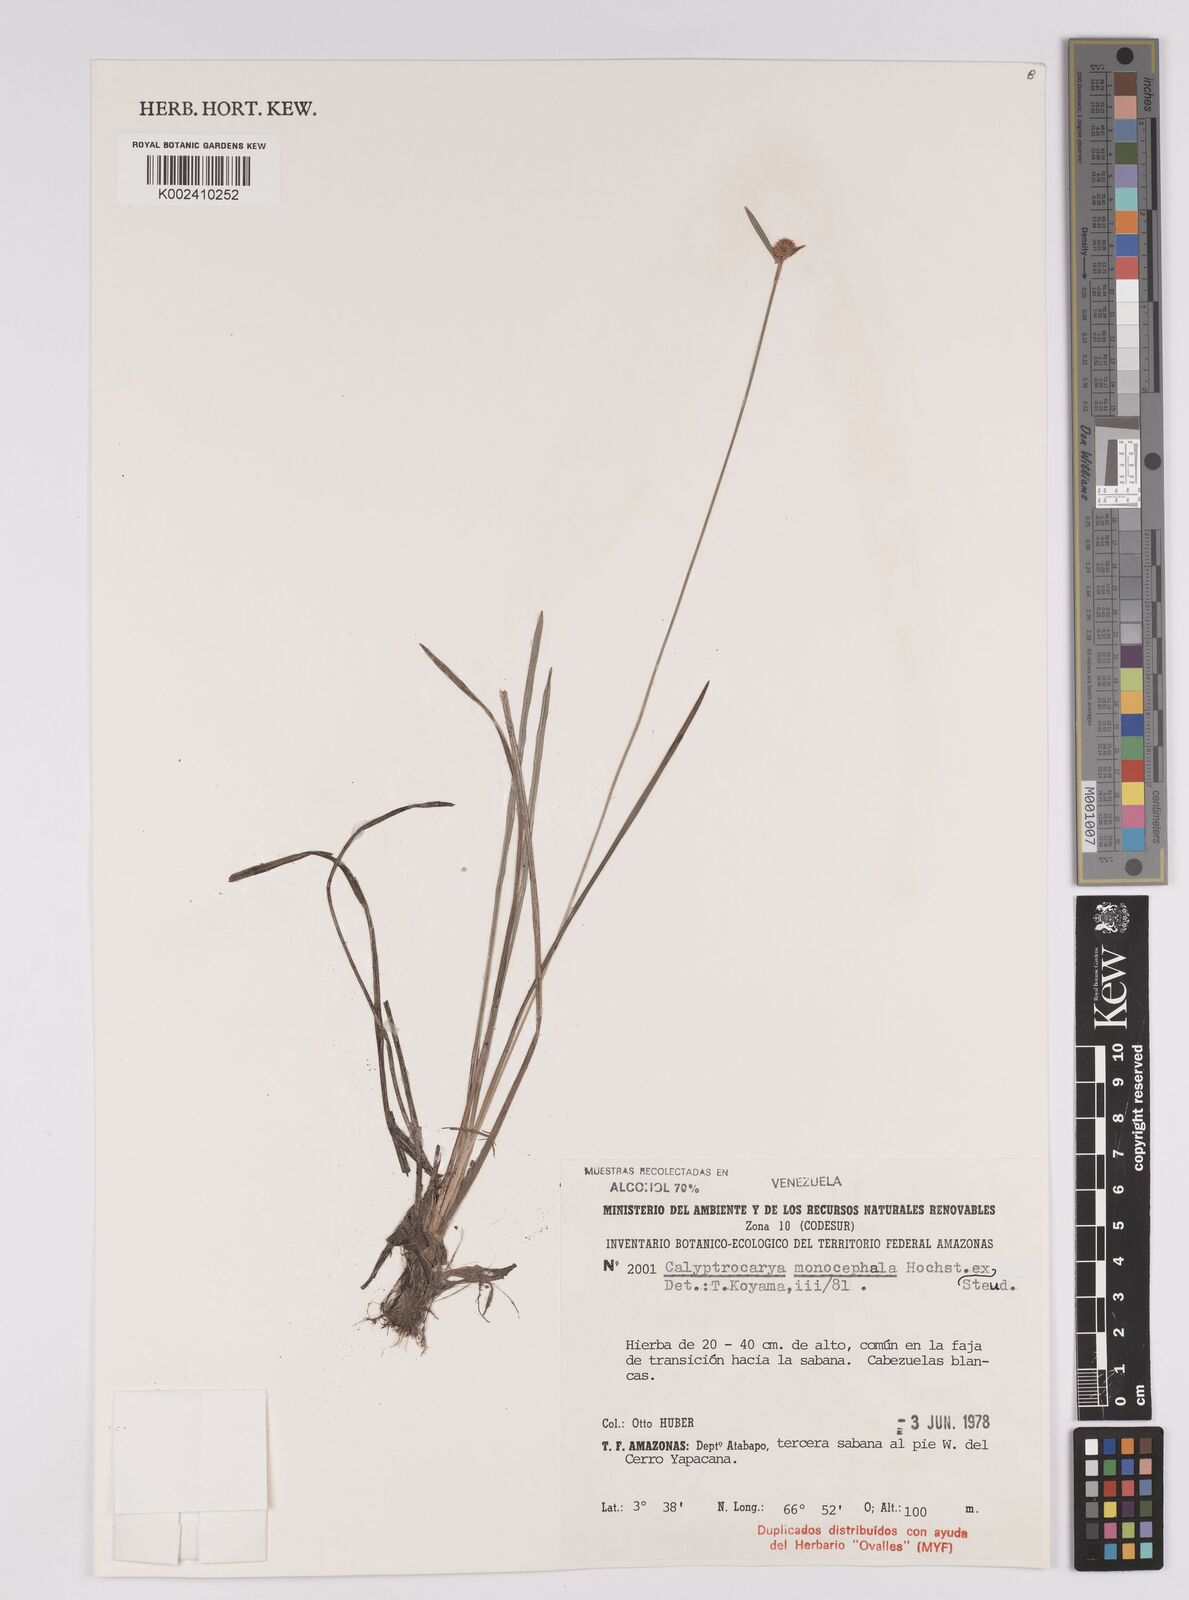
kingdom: Plantae
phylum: Tracheophyta
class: Liliopsida
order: Poales
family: Cyperaceae
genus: Calyptrocarya
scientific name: Calyptrocarya monocephala
